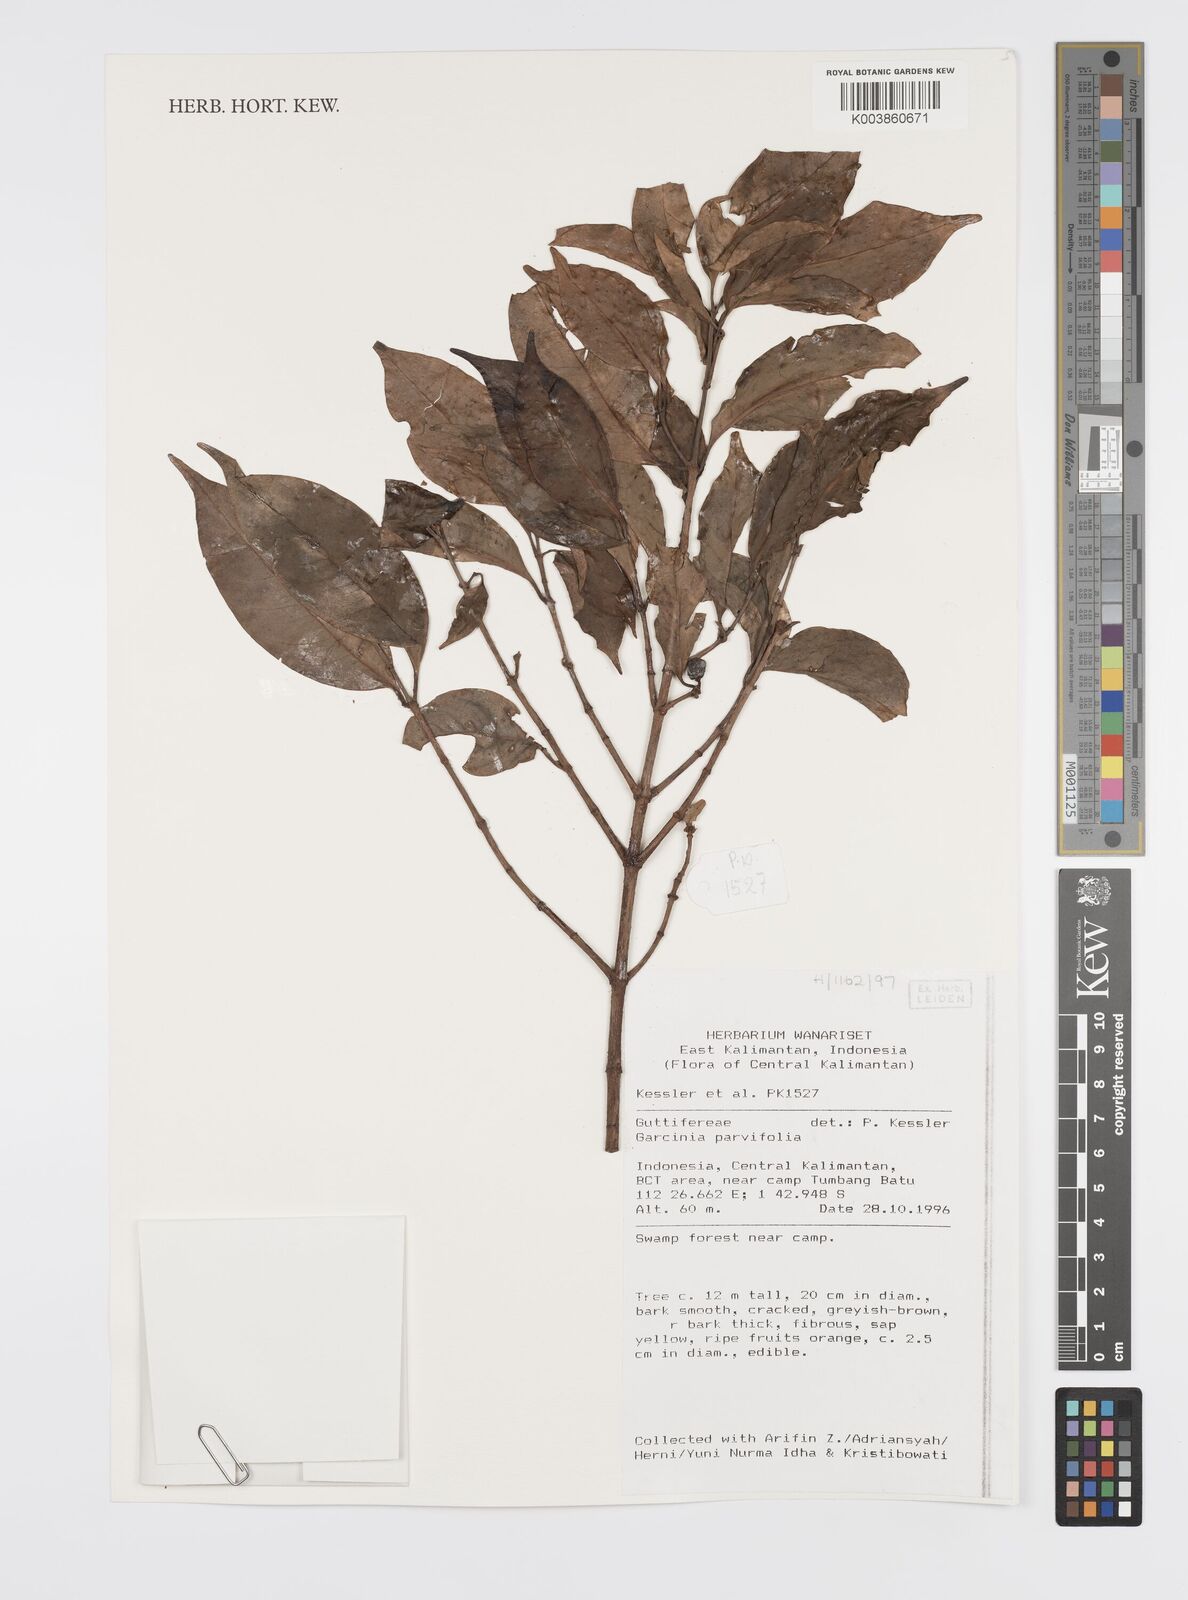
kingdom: Plantae
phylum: Tracheophyta
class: Magnoliopsida
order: Malpighiales
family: Clusiaceae
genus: Garcinia
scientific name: Garcinia parvifolia
